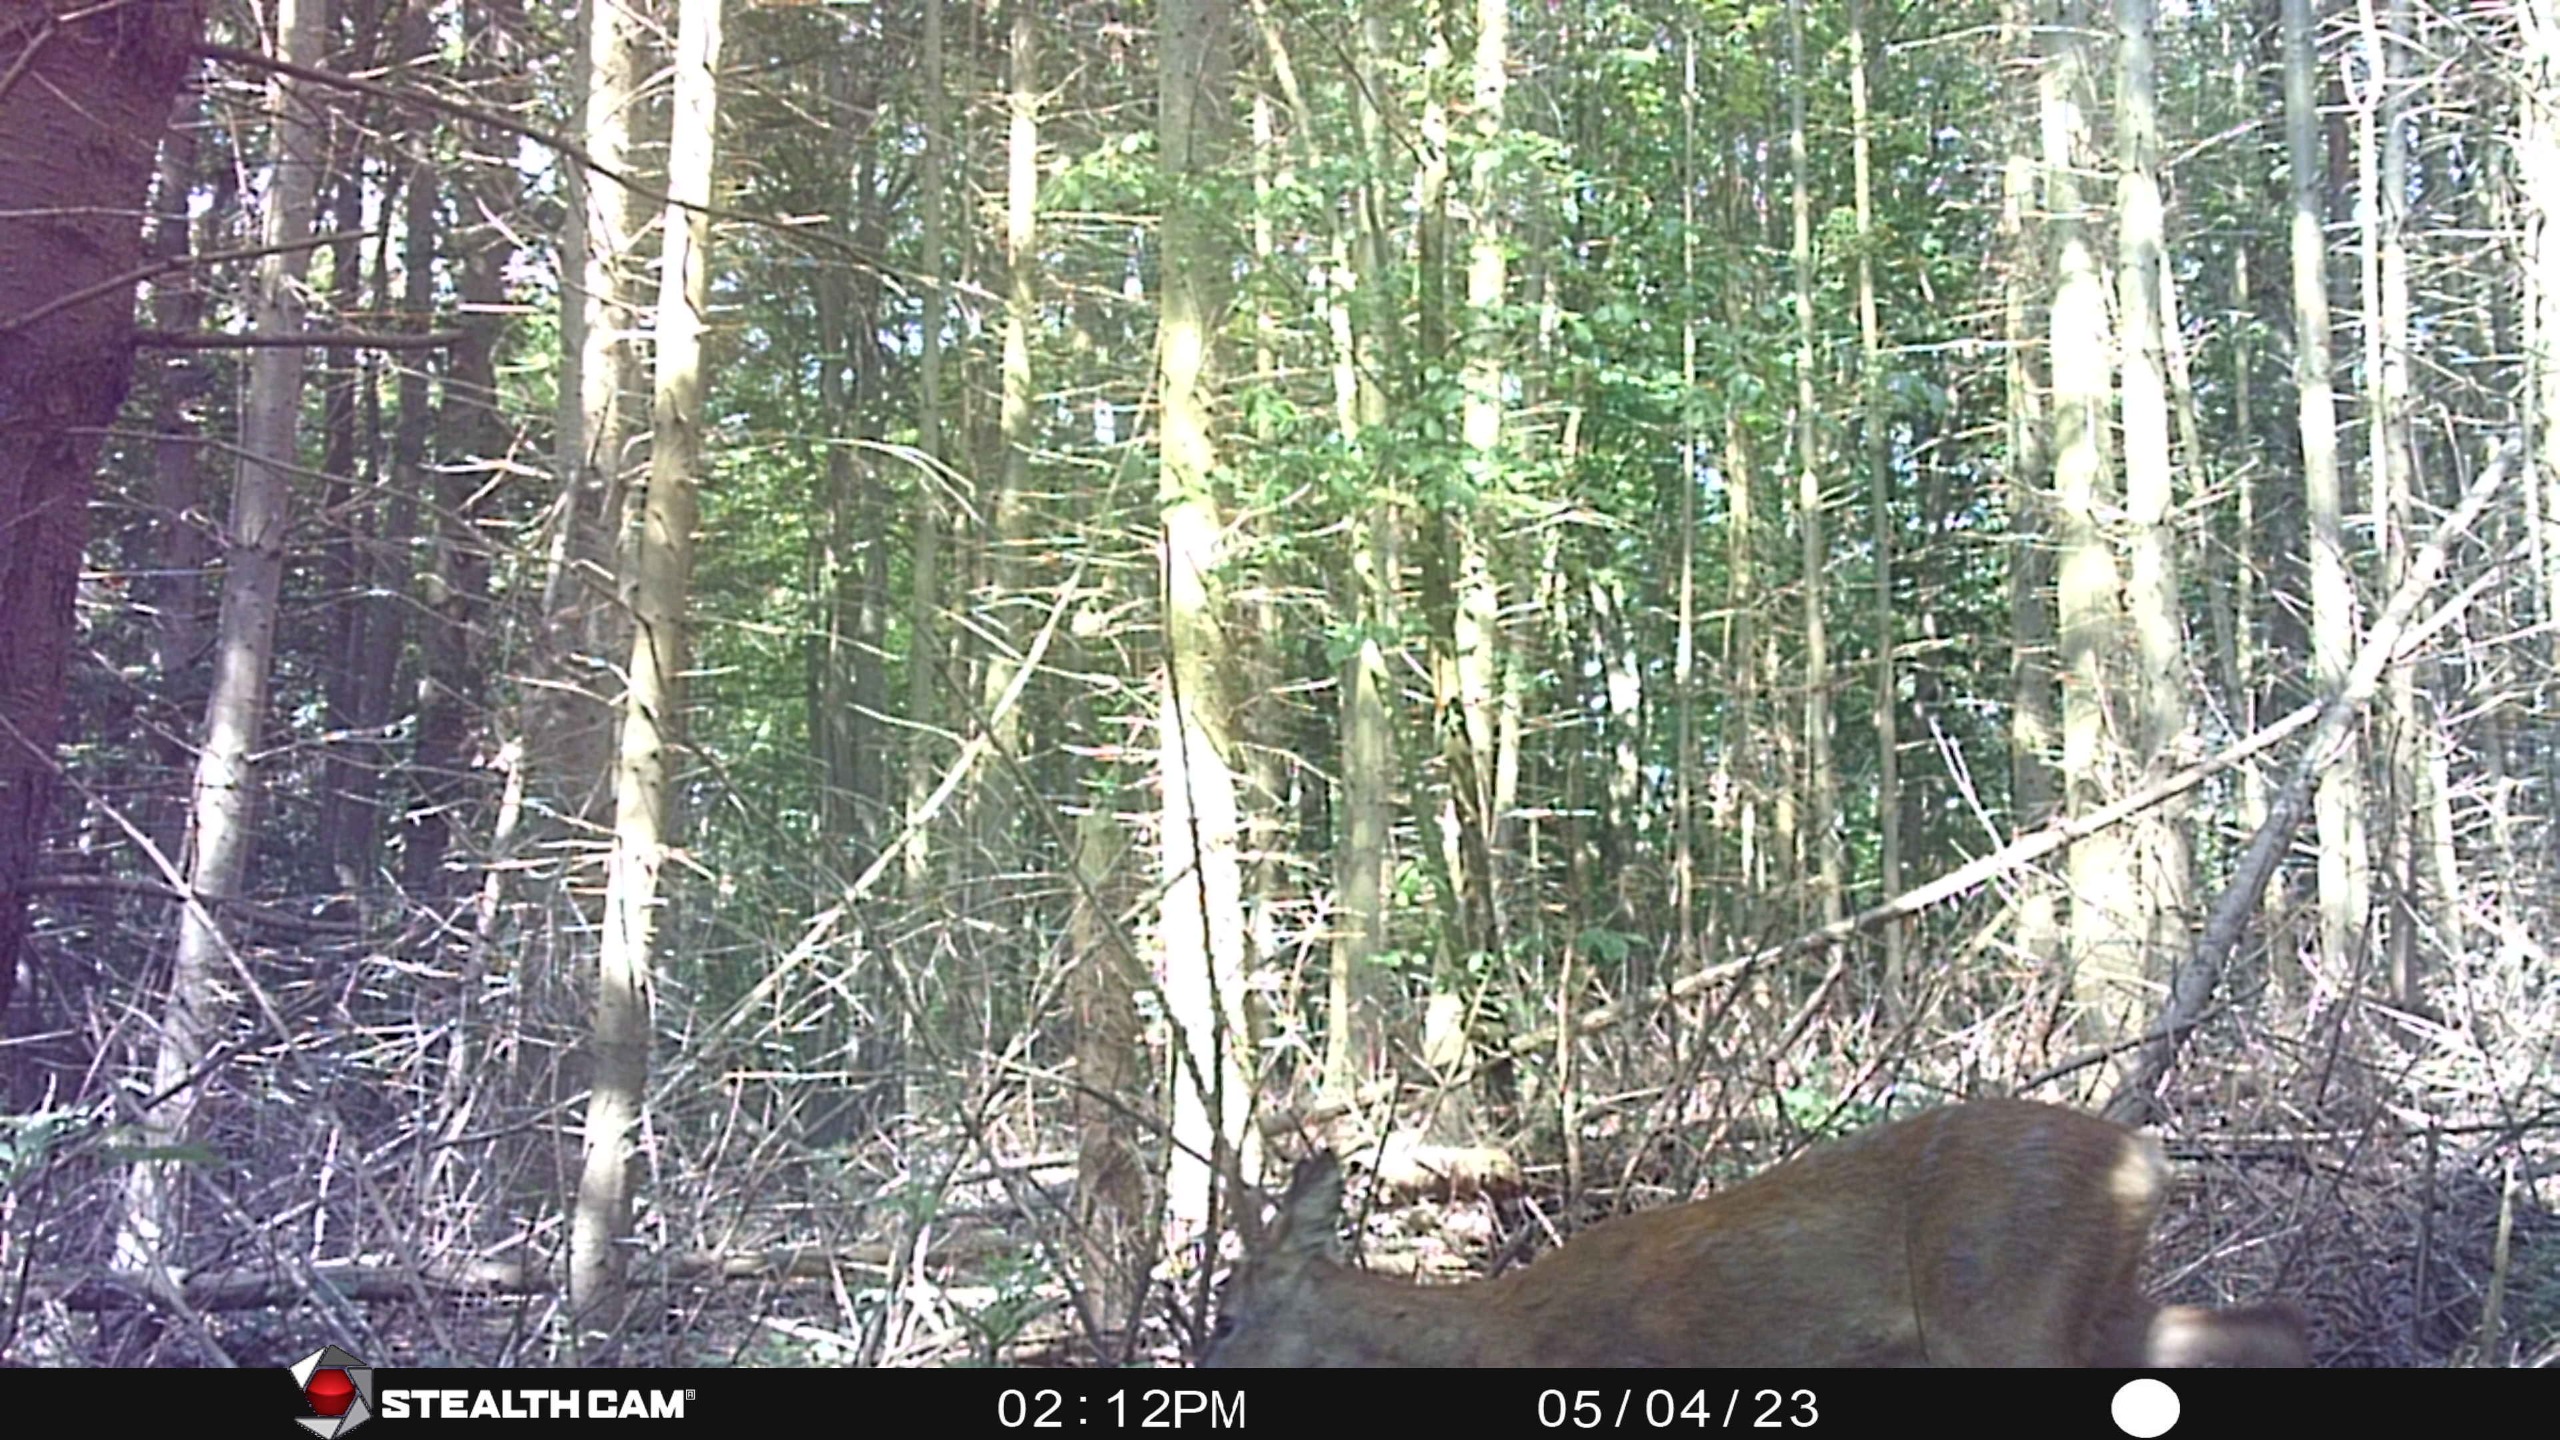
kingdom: Animalia
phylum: Chordata
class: Mammalia
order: Artiodactyla
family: Cervidae
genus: Capreolus
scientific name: Capreolus capreolus
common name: Rådyr
